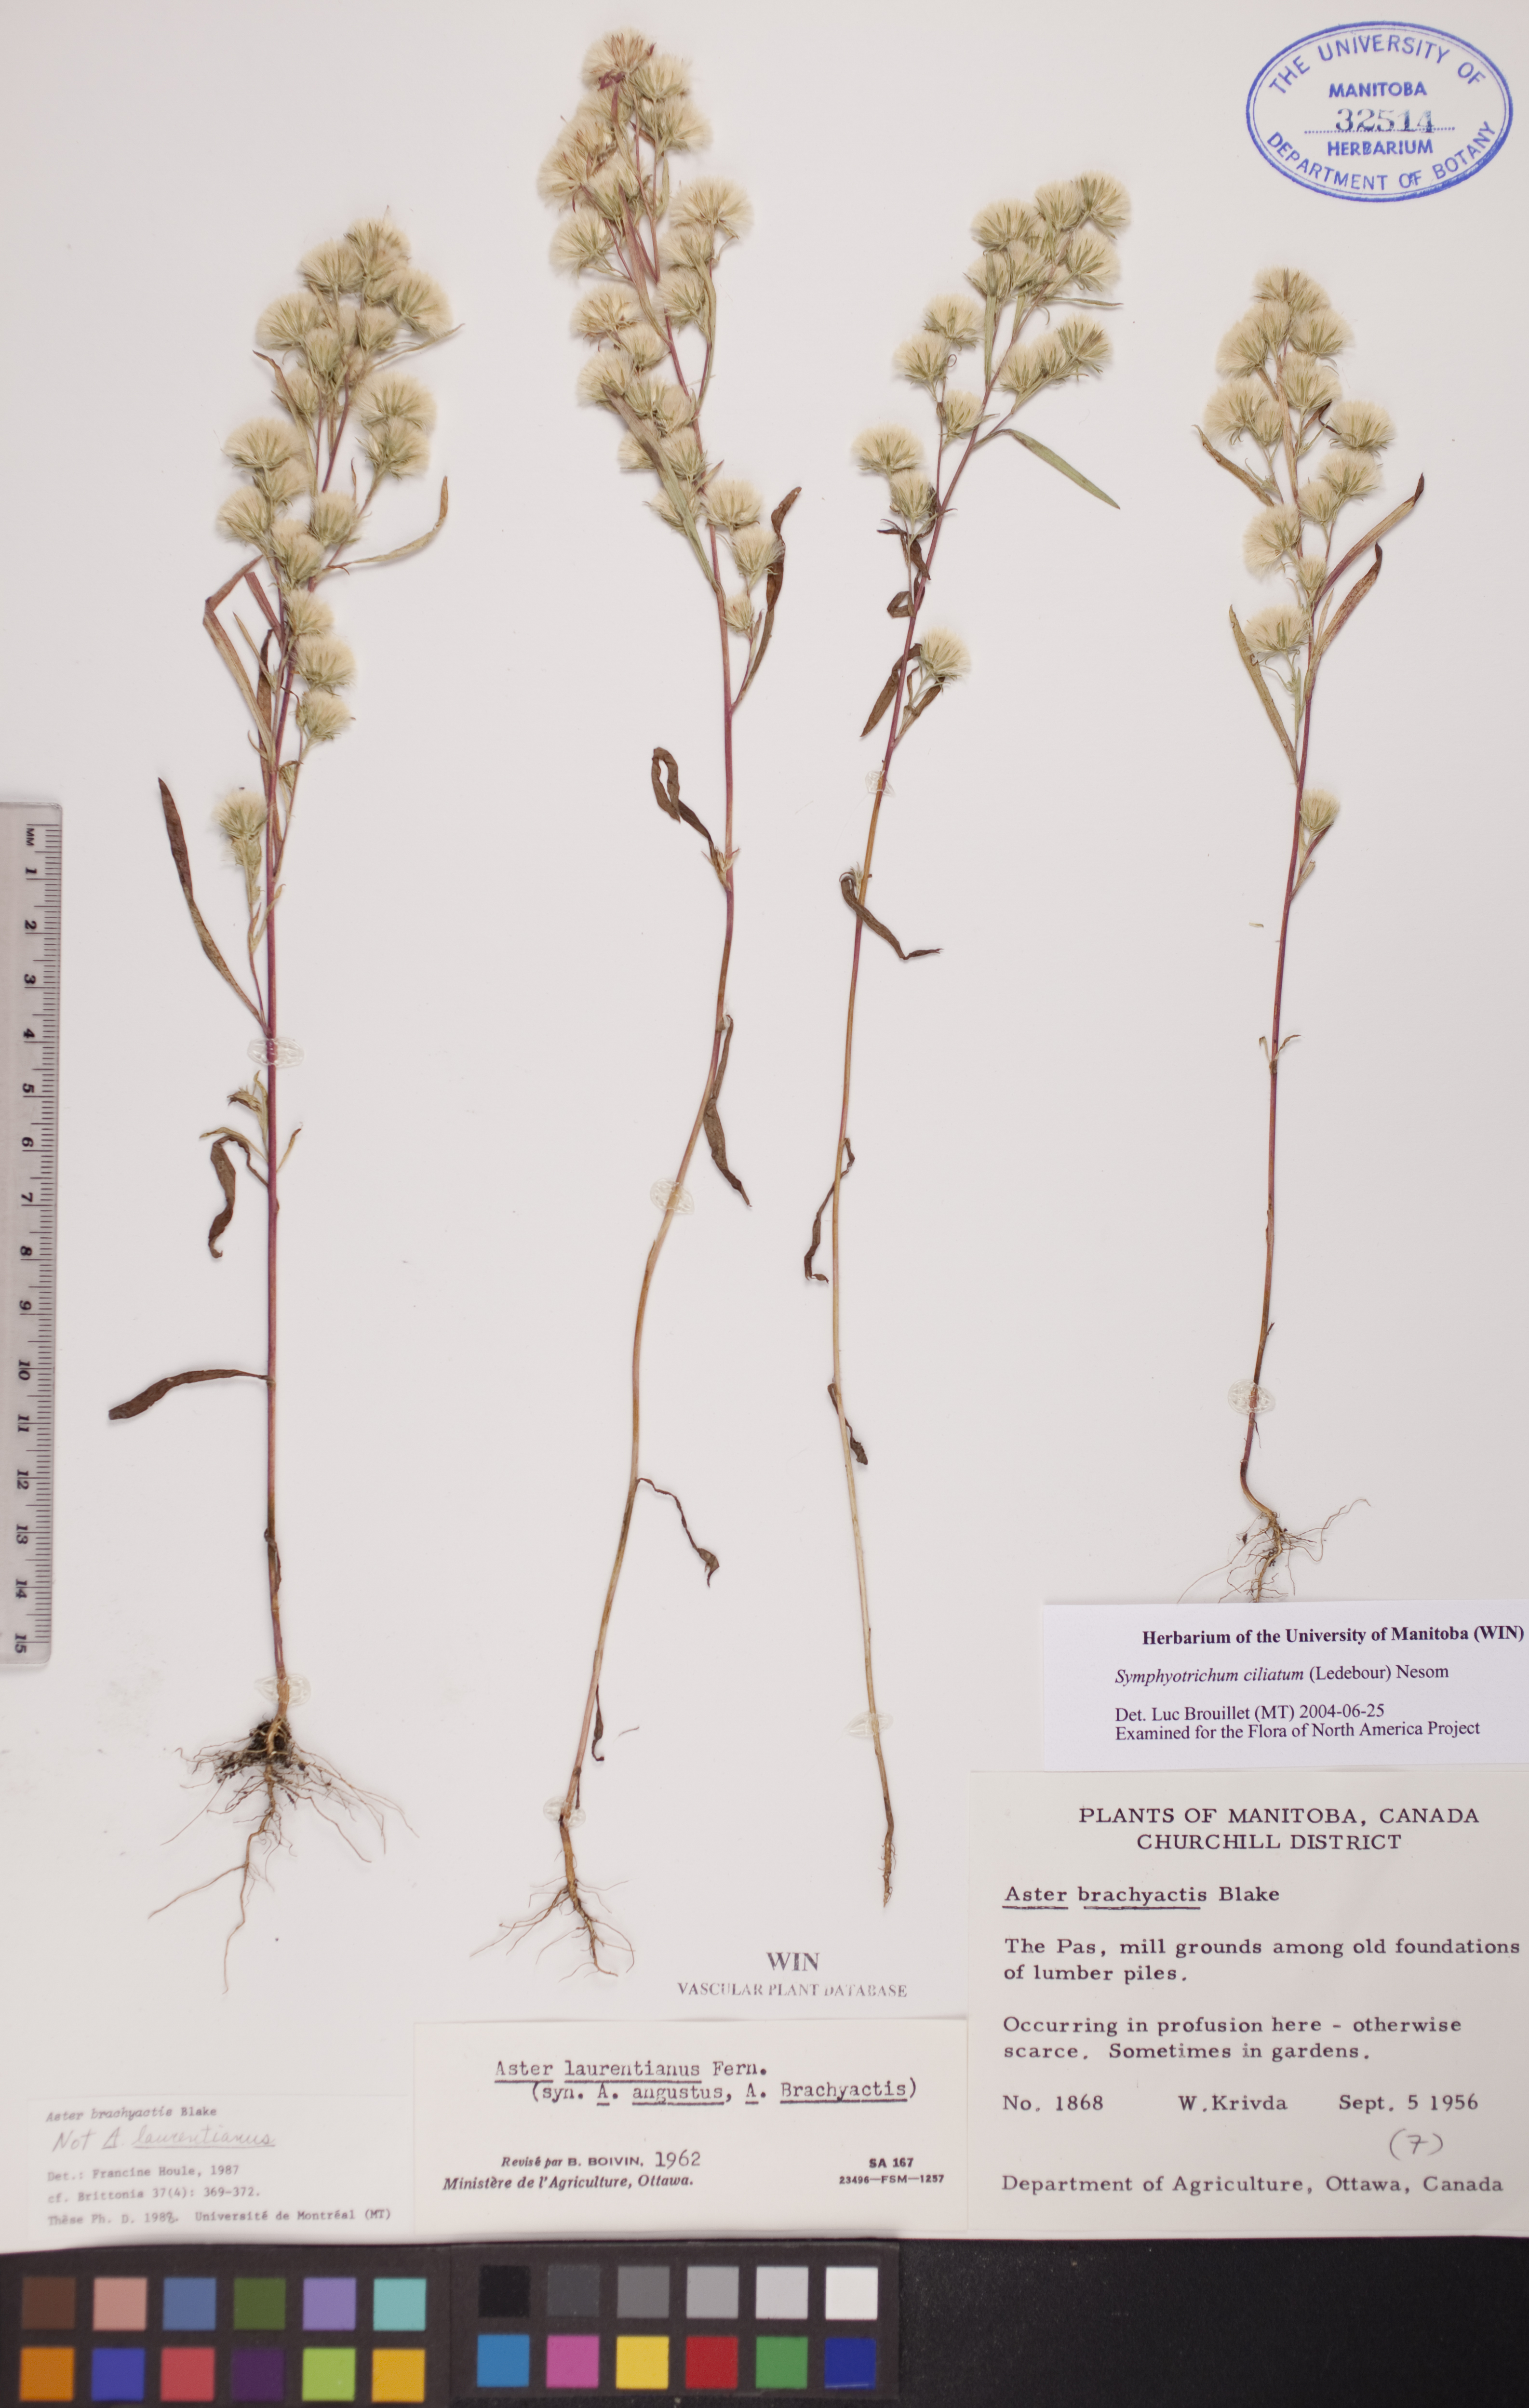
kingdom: Plantae
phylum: Tracheophyta
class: Magnoliopsida
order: Asterales
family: Asteraceae
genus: Symphyotrichum
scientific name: Symphyotrichum ciliatum
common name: Rayless annual aster
